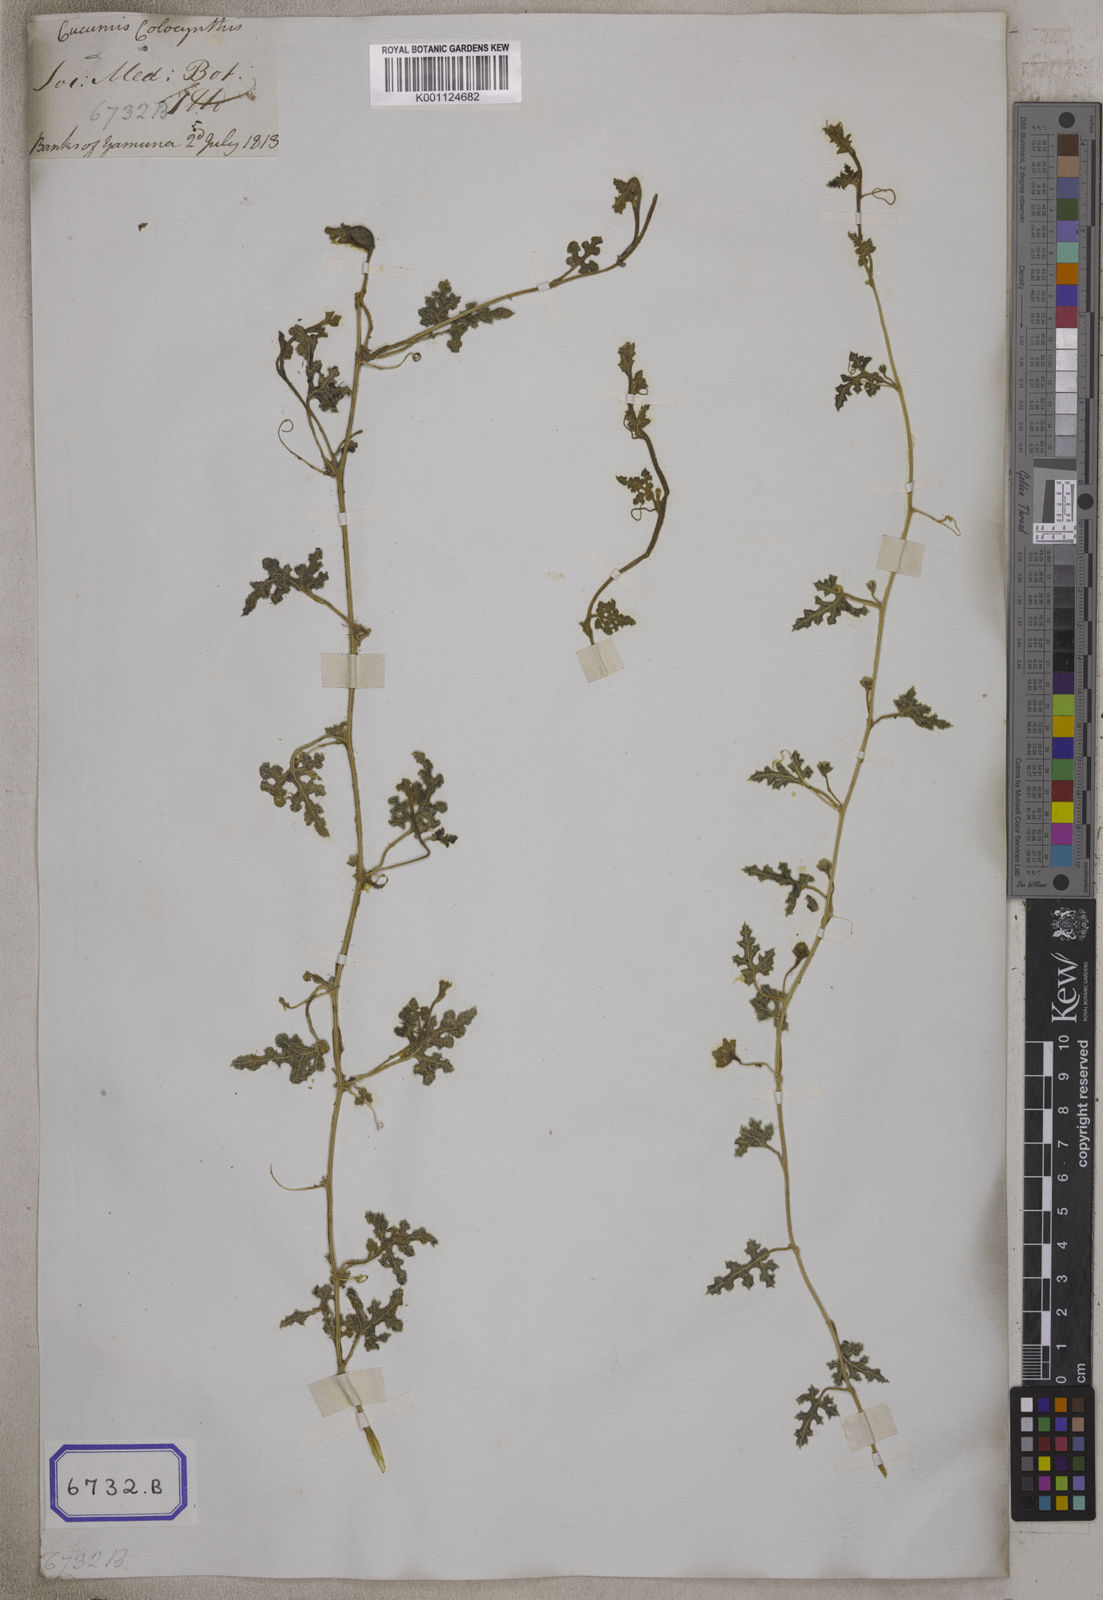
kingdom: Plantae
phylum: Tracheophyta
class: Magnoliopsida
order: Cucurbitales
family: Cucurbitaceae
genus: Citrullus
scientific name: Citrullus colocynthis
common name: Colocynth
